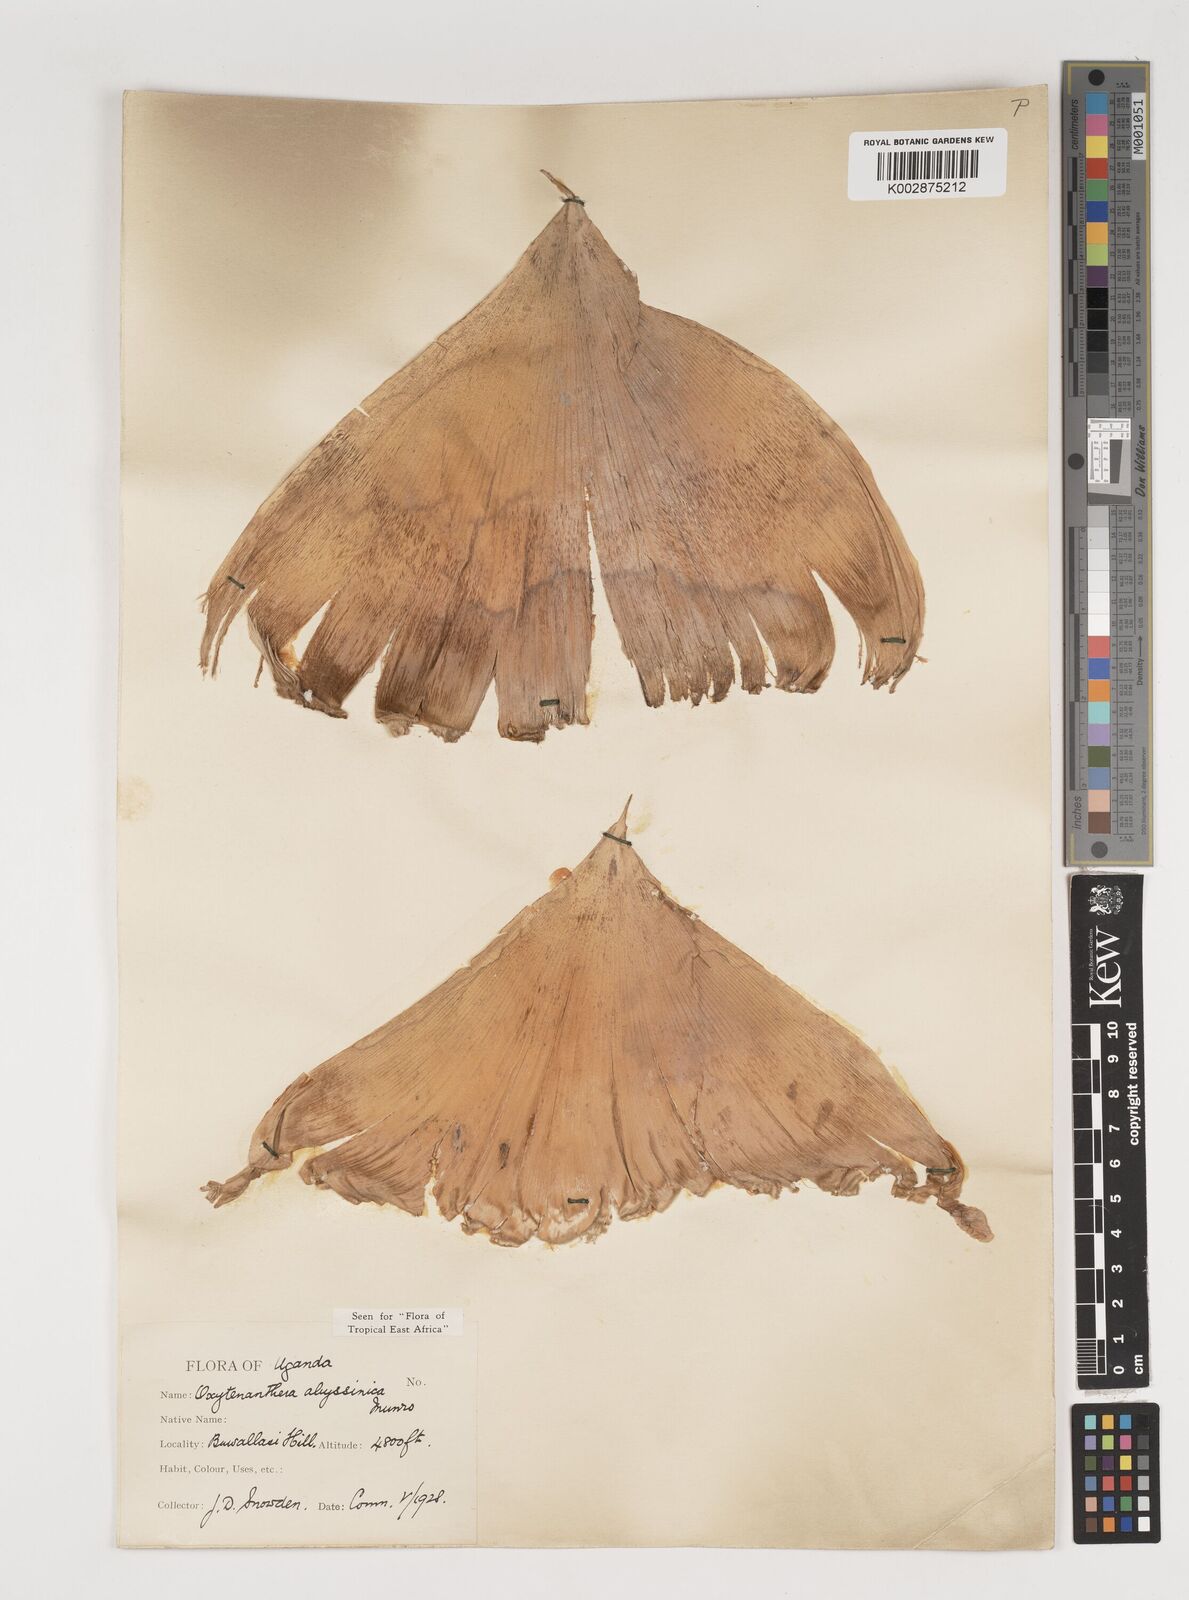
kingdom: Plantae
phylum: Tracheophyta
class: Liliopsida
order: Poales
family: Poaceae
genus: Oxytenanthera
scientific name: Oxytenanthera abyssinica
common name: Wine bamboo
